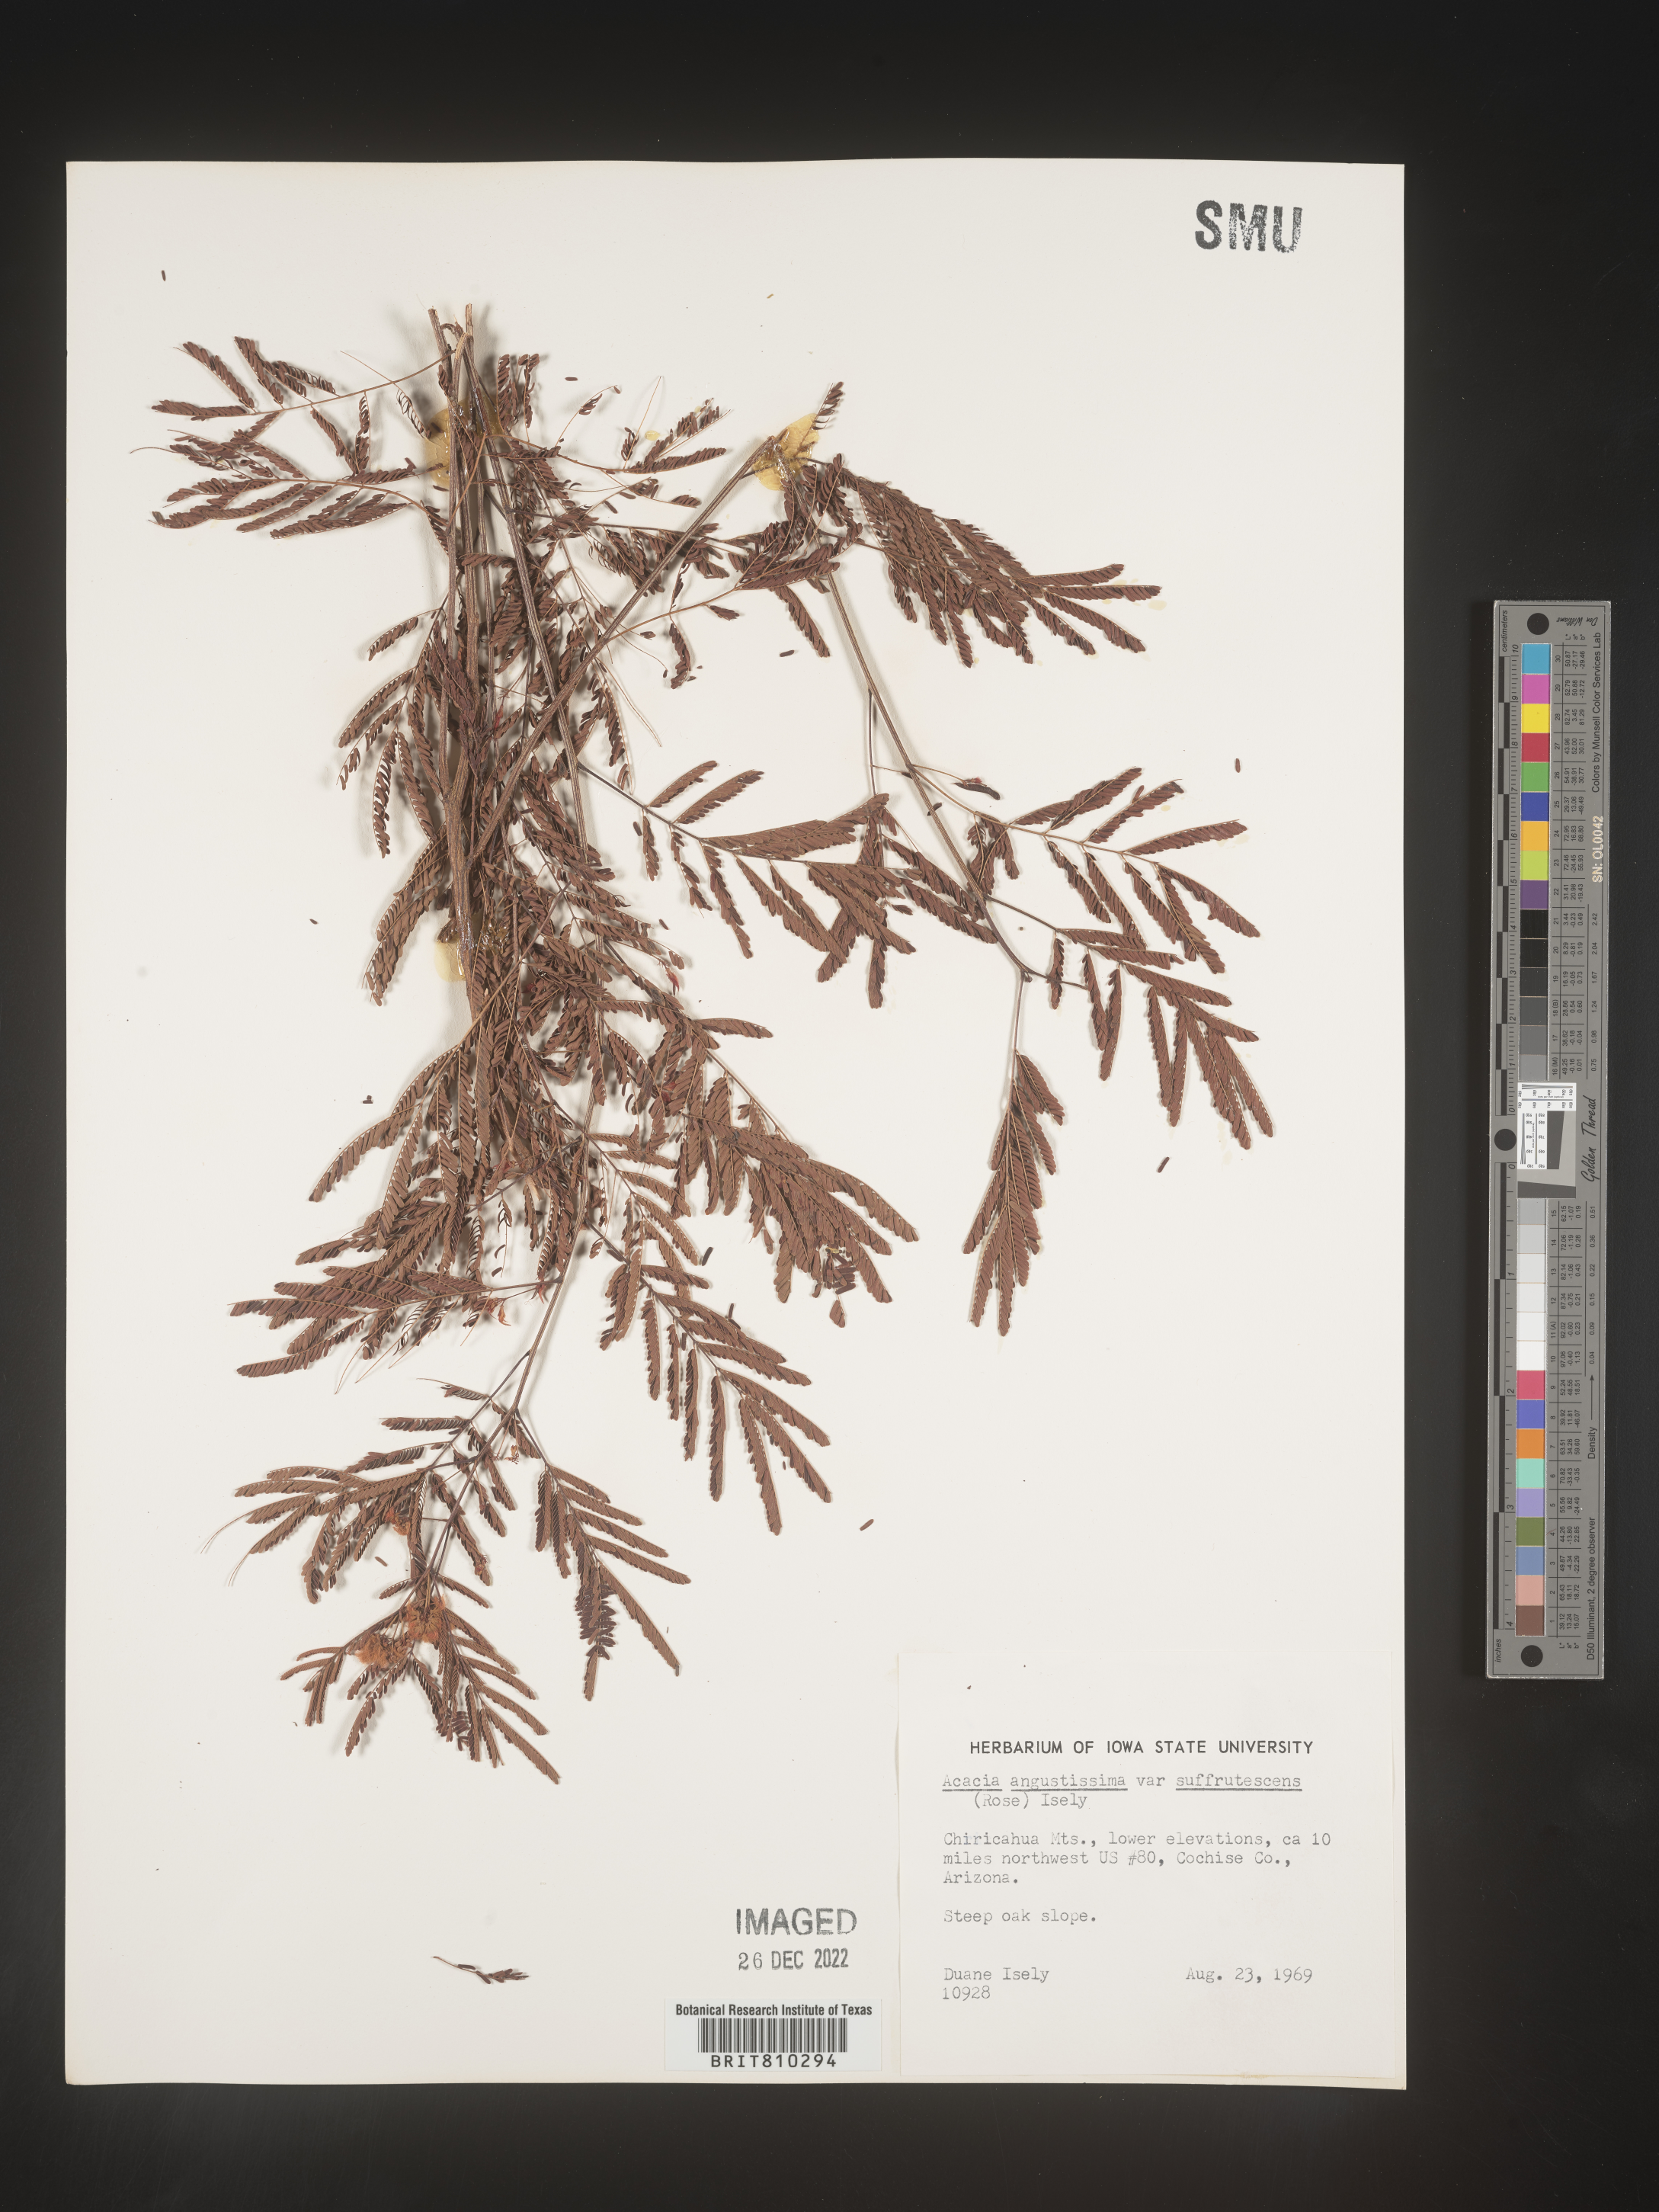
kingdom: Plantae
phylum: Tracheophyta
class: Magnoliopsida
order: Fabales
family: Fabaceae
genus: Acaciella
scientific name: Acaciella angustissima
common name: Prairie acacia
